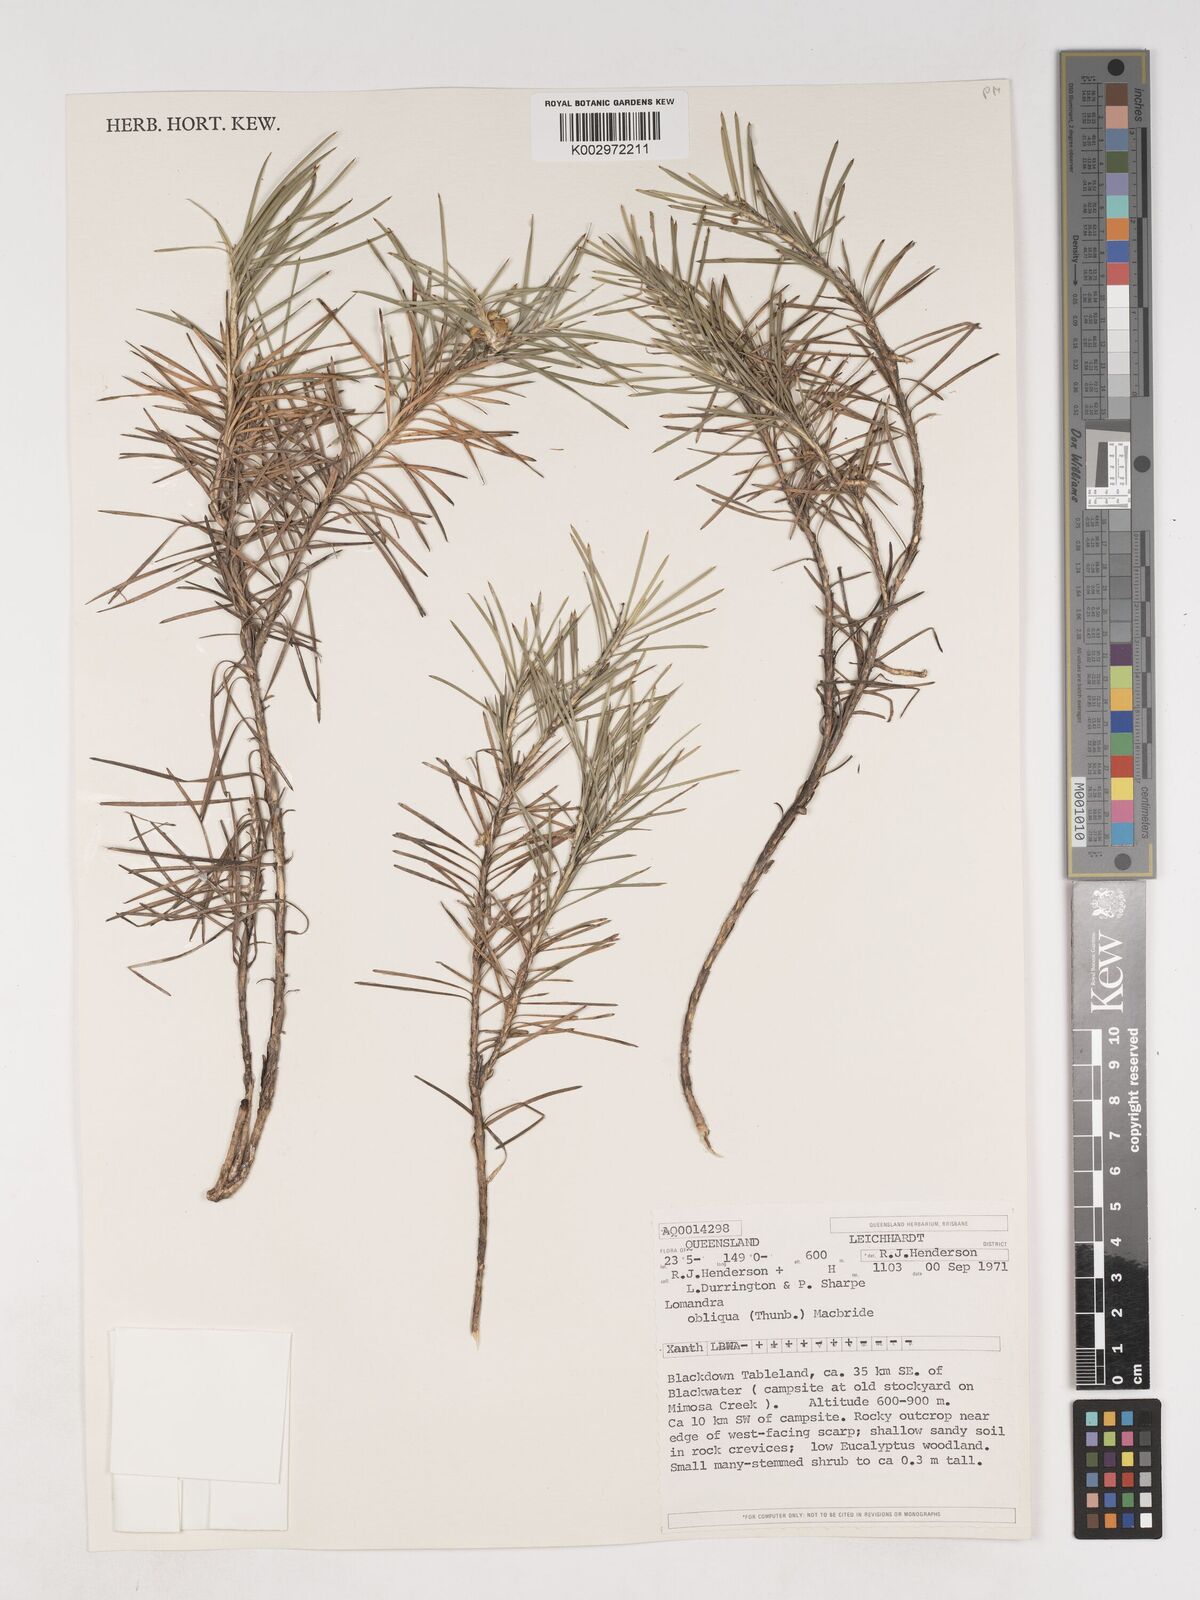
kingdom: Plantae
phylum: Tracheophyta
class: Liliopsida
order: Asparagales
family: Asparagaceae
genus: Lomandra
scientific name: Lomandra obliqua
